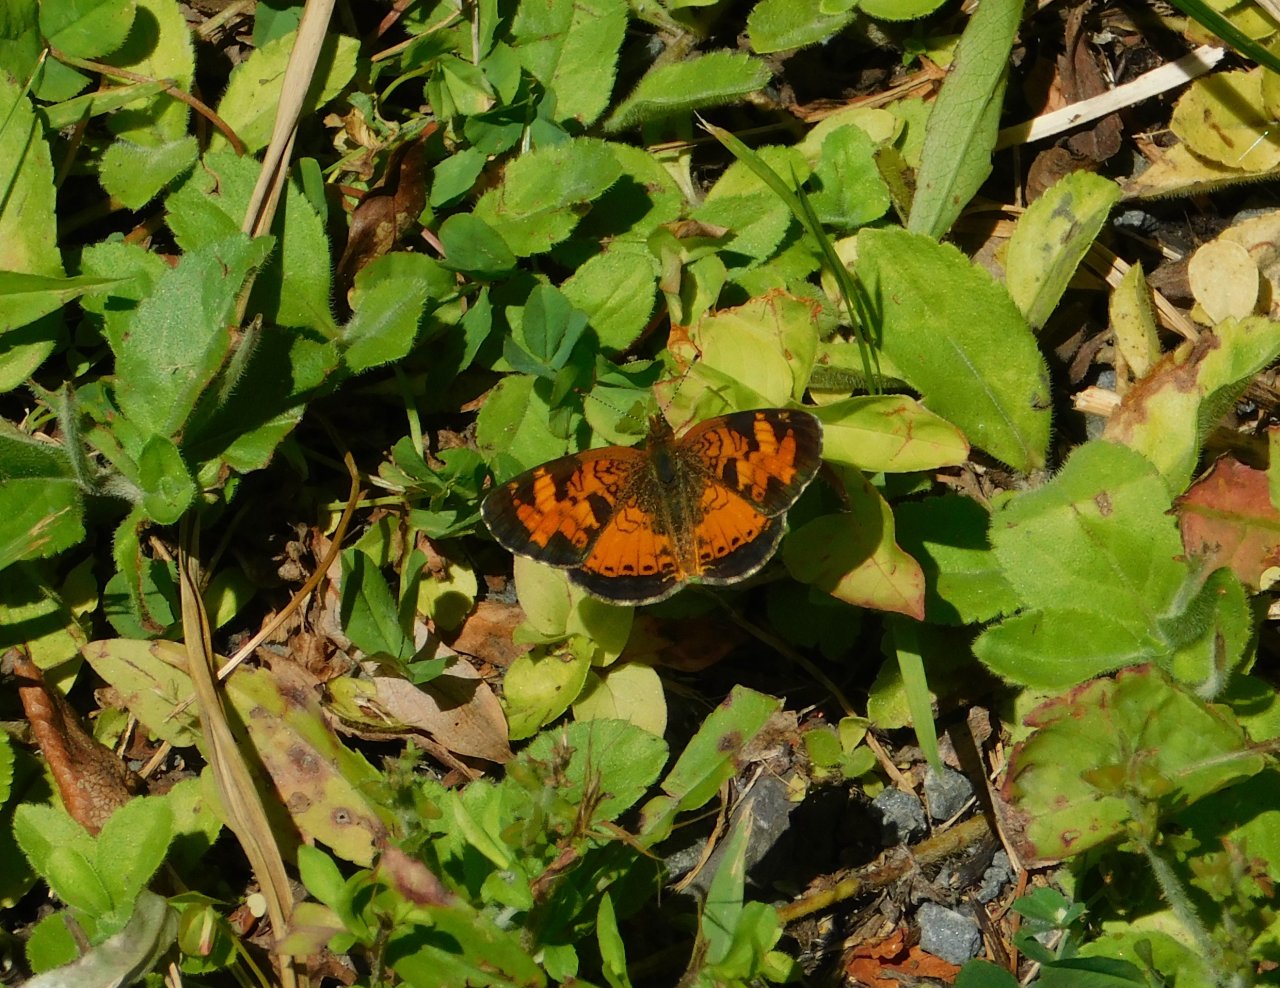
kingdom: Animalia
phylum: Arthropoda
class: Insecta
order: Lepidoptera
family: Nymphalidae
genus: Phyciodes
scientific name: Phyciodes tharos
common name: Northern Crescent
